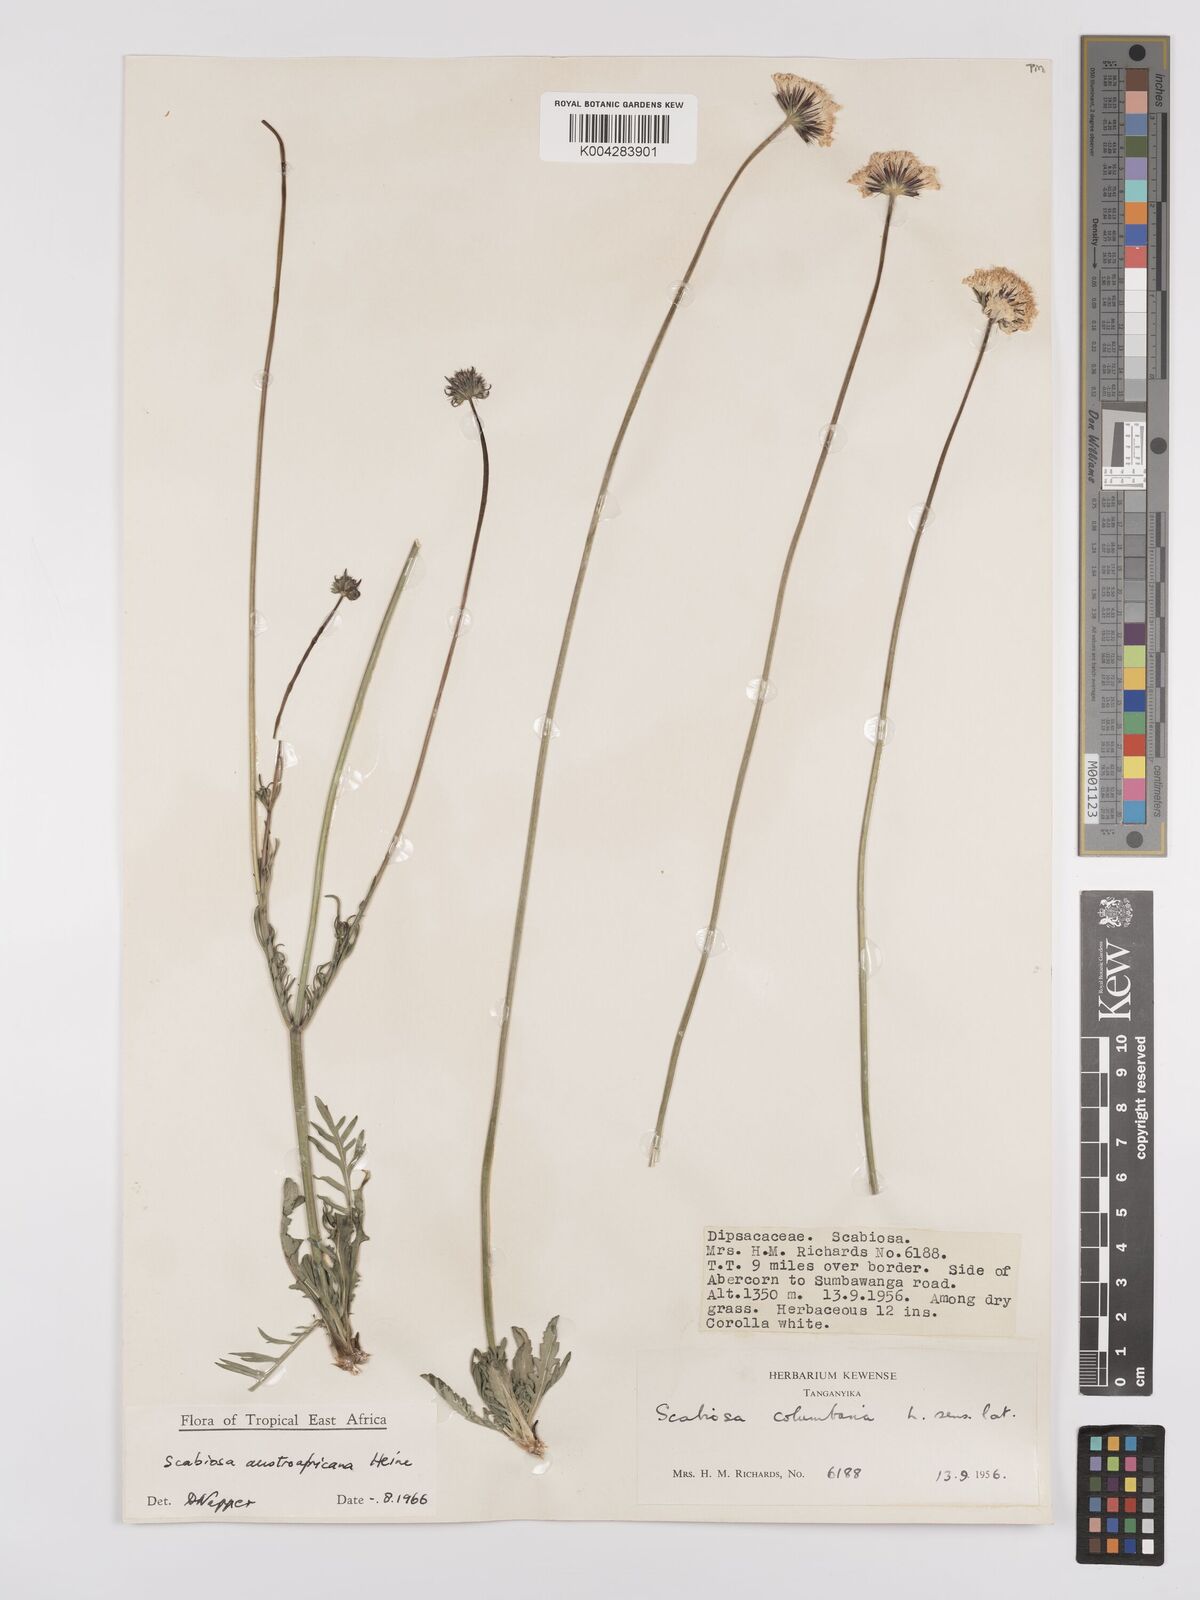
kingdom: Plantae
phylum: Tracheophyta
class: Magnoliopsida
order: Dipsacales
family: Caprifoliaceae
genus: Scabiosa
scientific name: Scabiosa austroafricana
